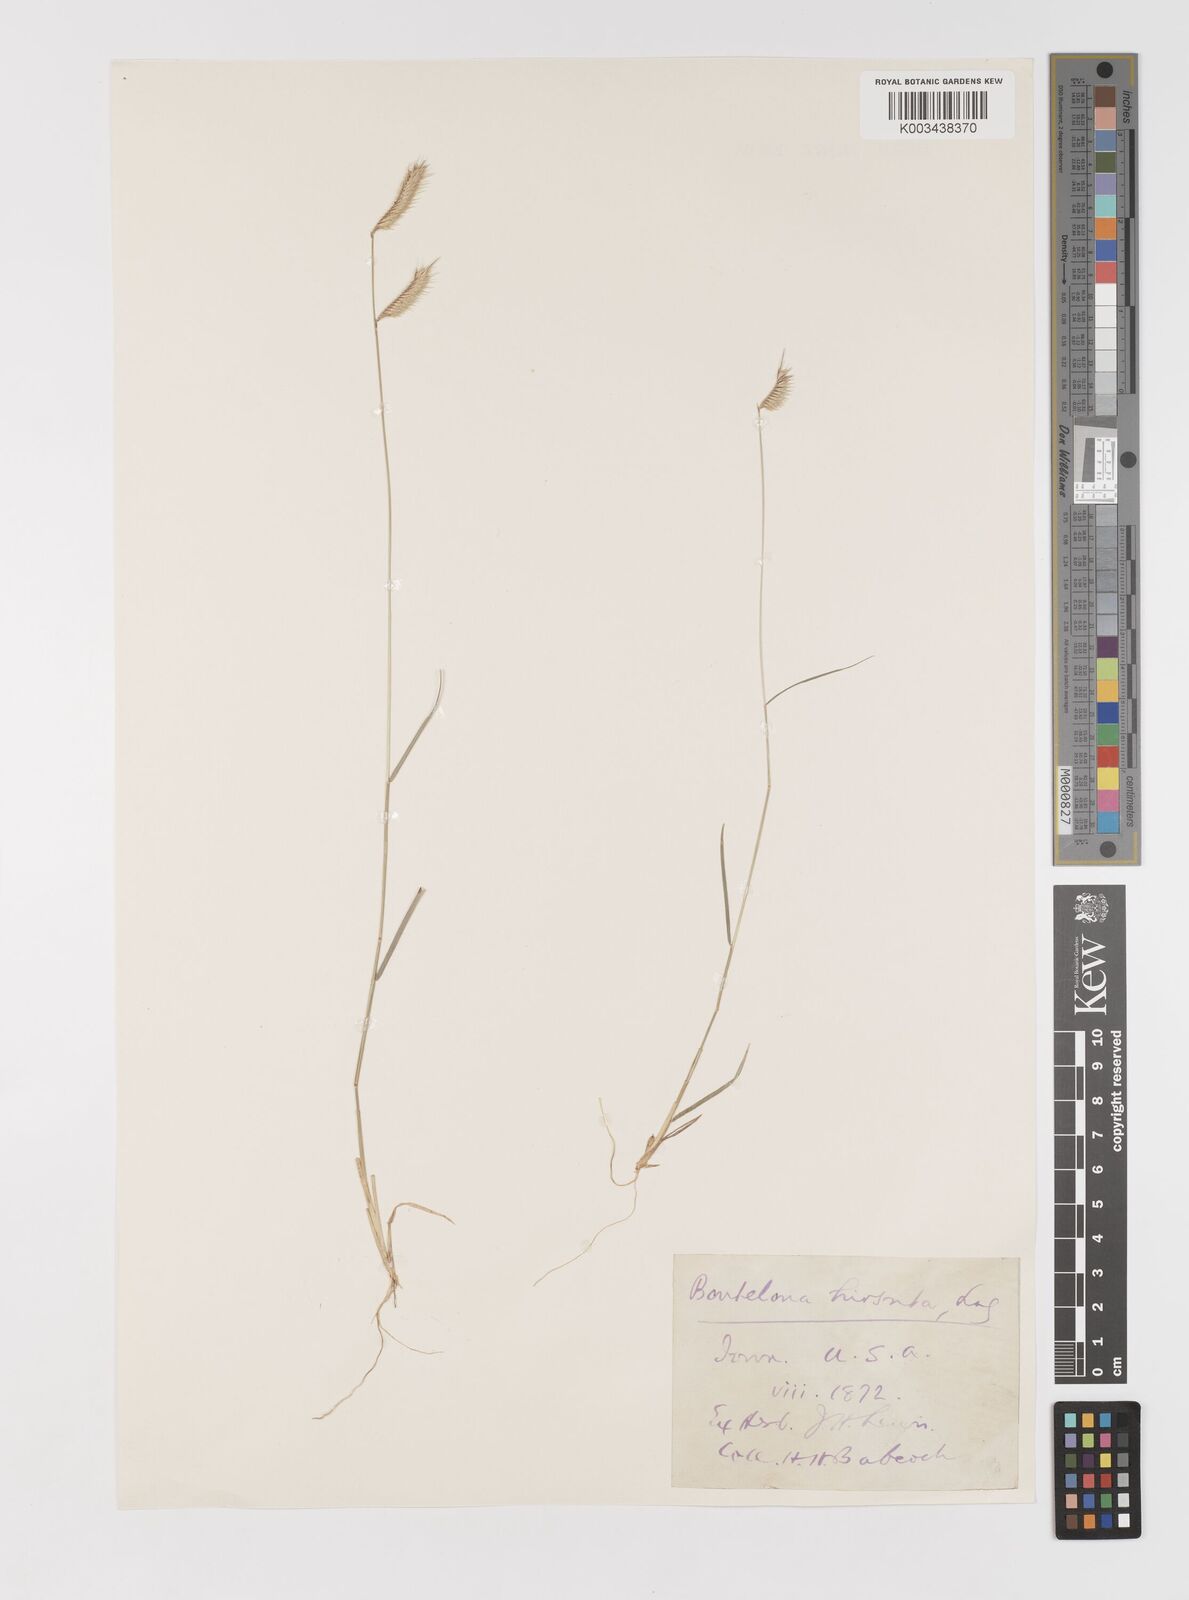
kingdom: Plantae
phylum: Tracheophyta
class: Liliopsida
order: Poales
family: Poaceae
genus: Bouteloua
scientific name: Bouteloua hirsuta
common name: Hairy grama
